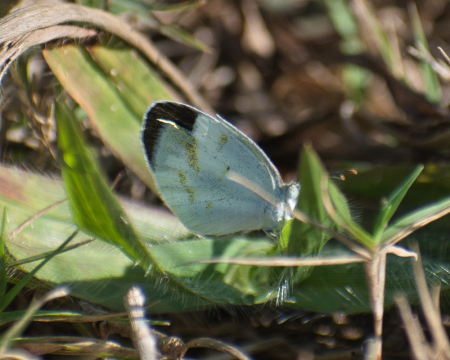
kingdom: Animalia
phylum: Arthropoda
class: Insecta
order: Lepidoptera
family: Pieridae
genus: Eurema
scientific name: Eurema elathea
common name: Banded Yellow
